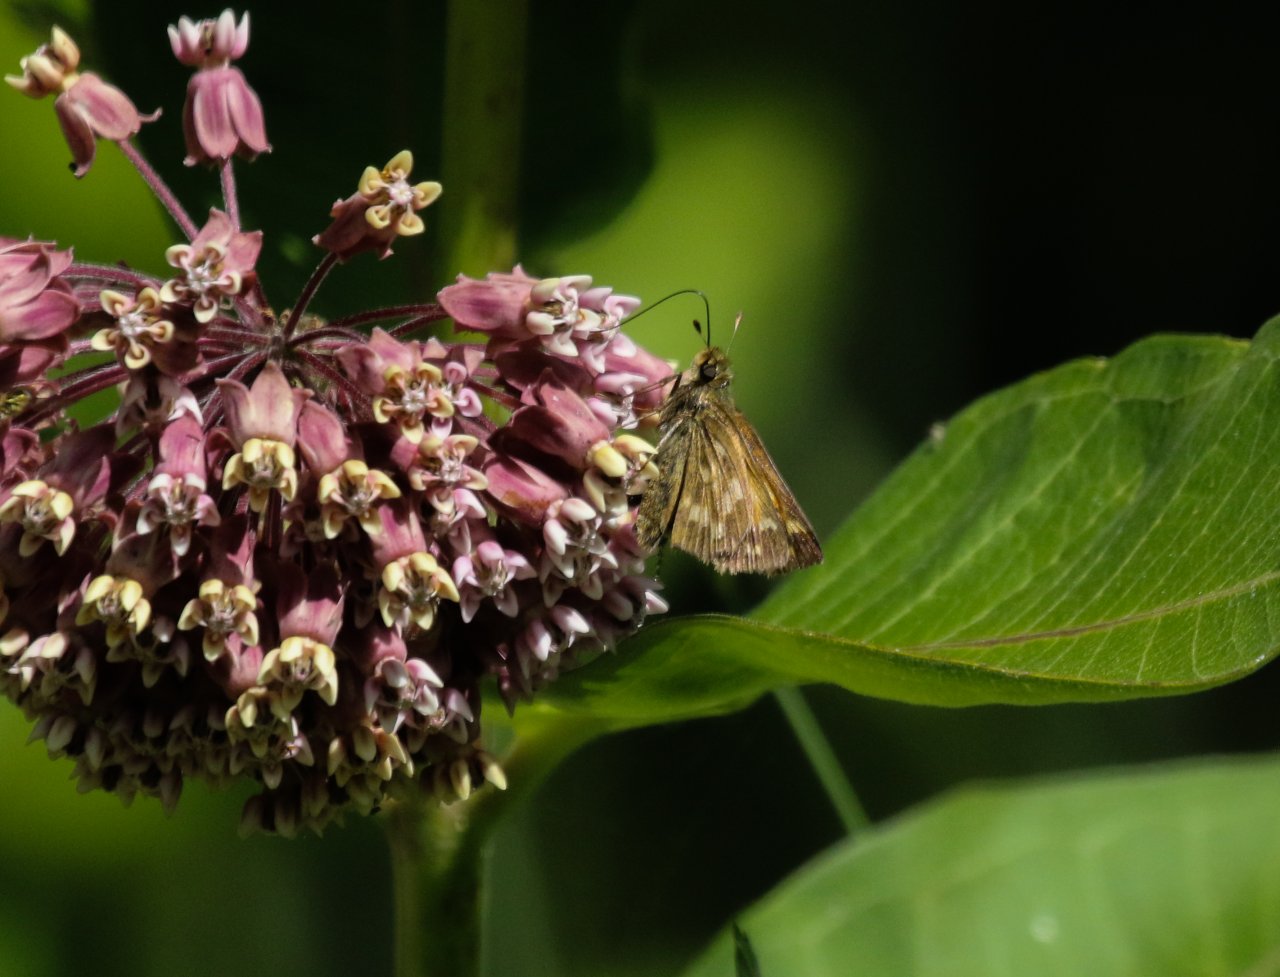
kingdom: Animalia
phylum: Arthropoda
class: Insecta
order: Lepidoptera
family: Hesperiidae
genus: Hesperia
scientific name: Hesperia sassacus
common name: Sassacus Skipper
